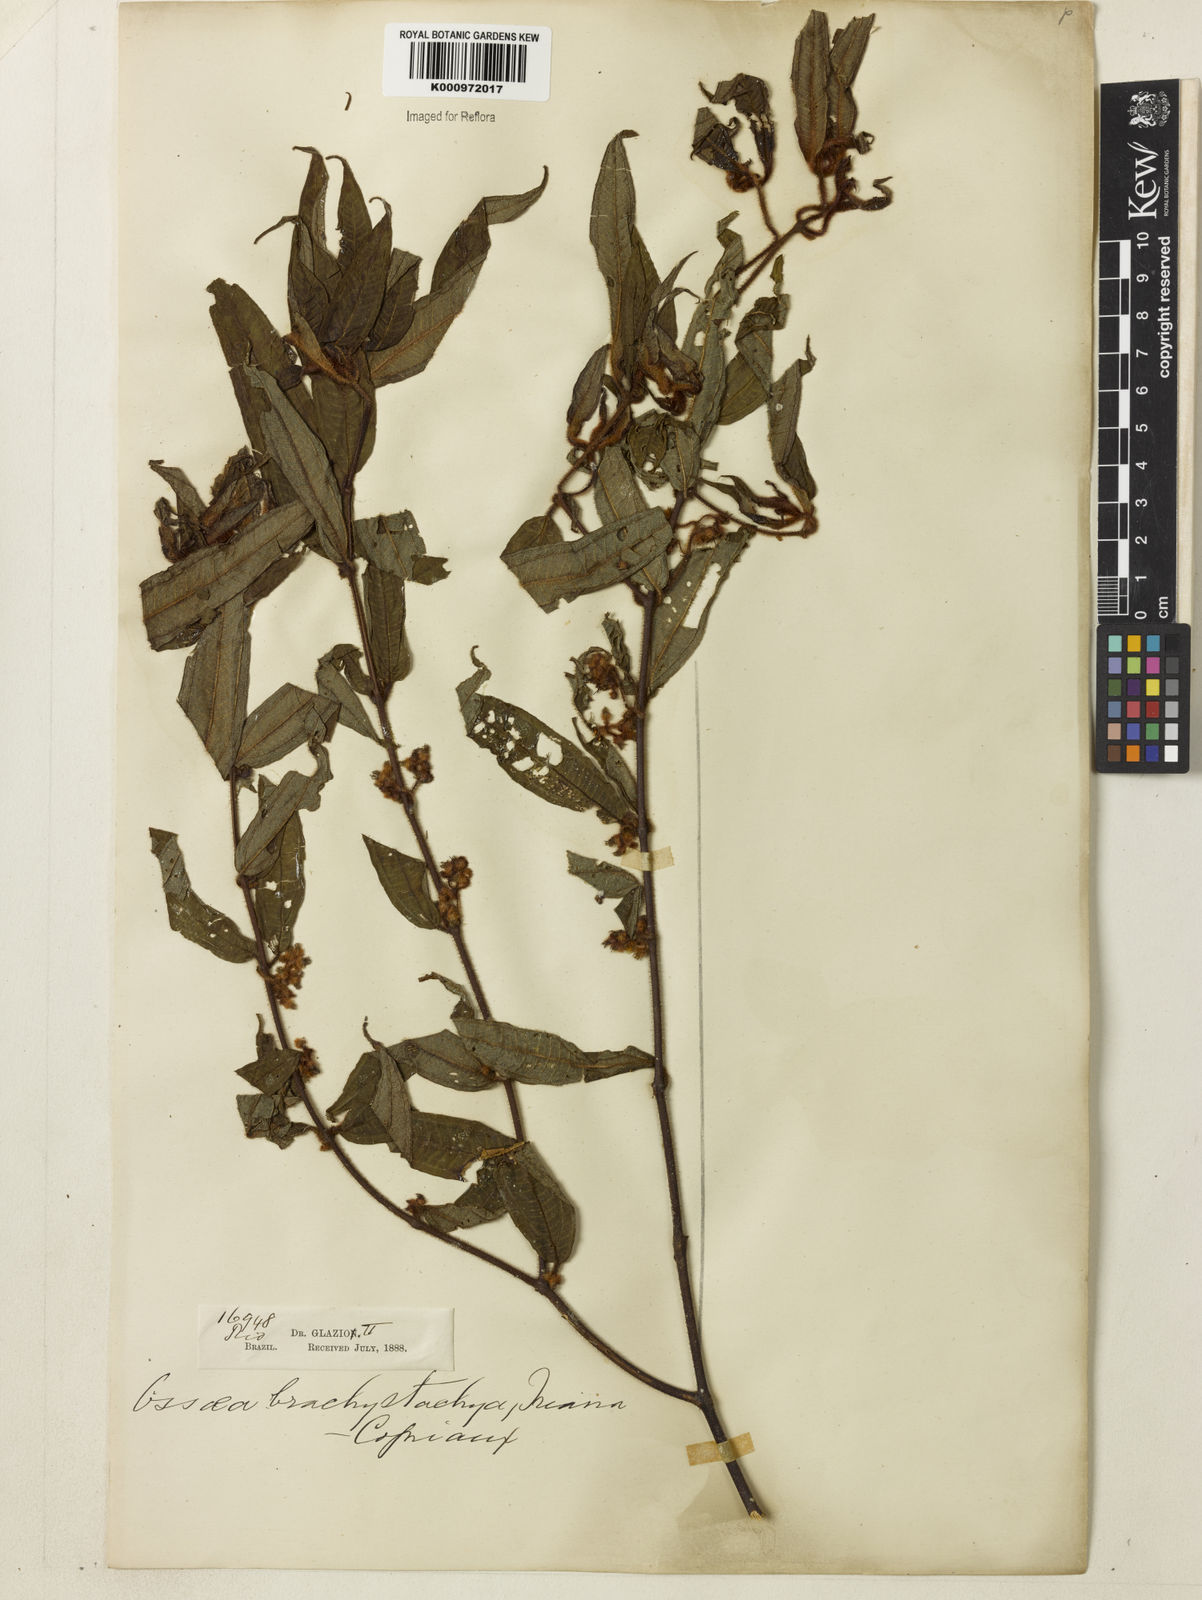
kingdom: Plantae
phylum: Tracheophyta
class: Magnoliopsida
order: Myrtales
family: Melastomataceae
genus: Miconia
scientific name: Miconia amygdaloides
